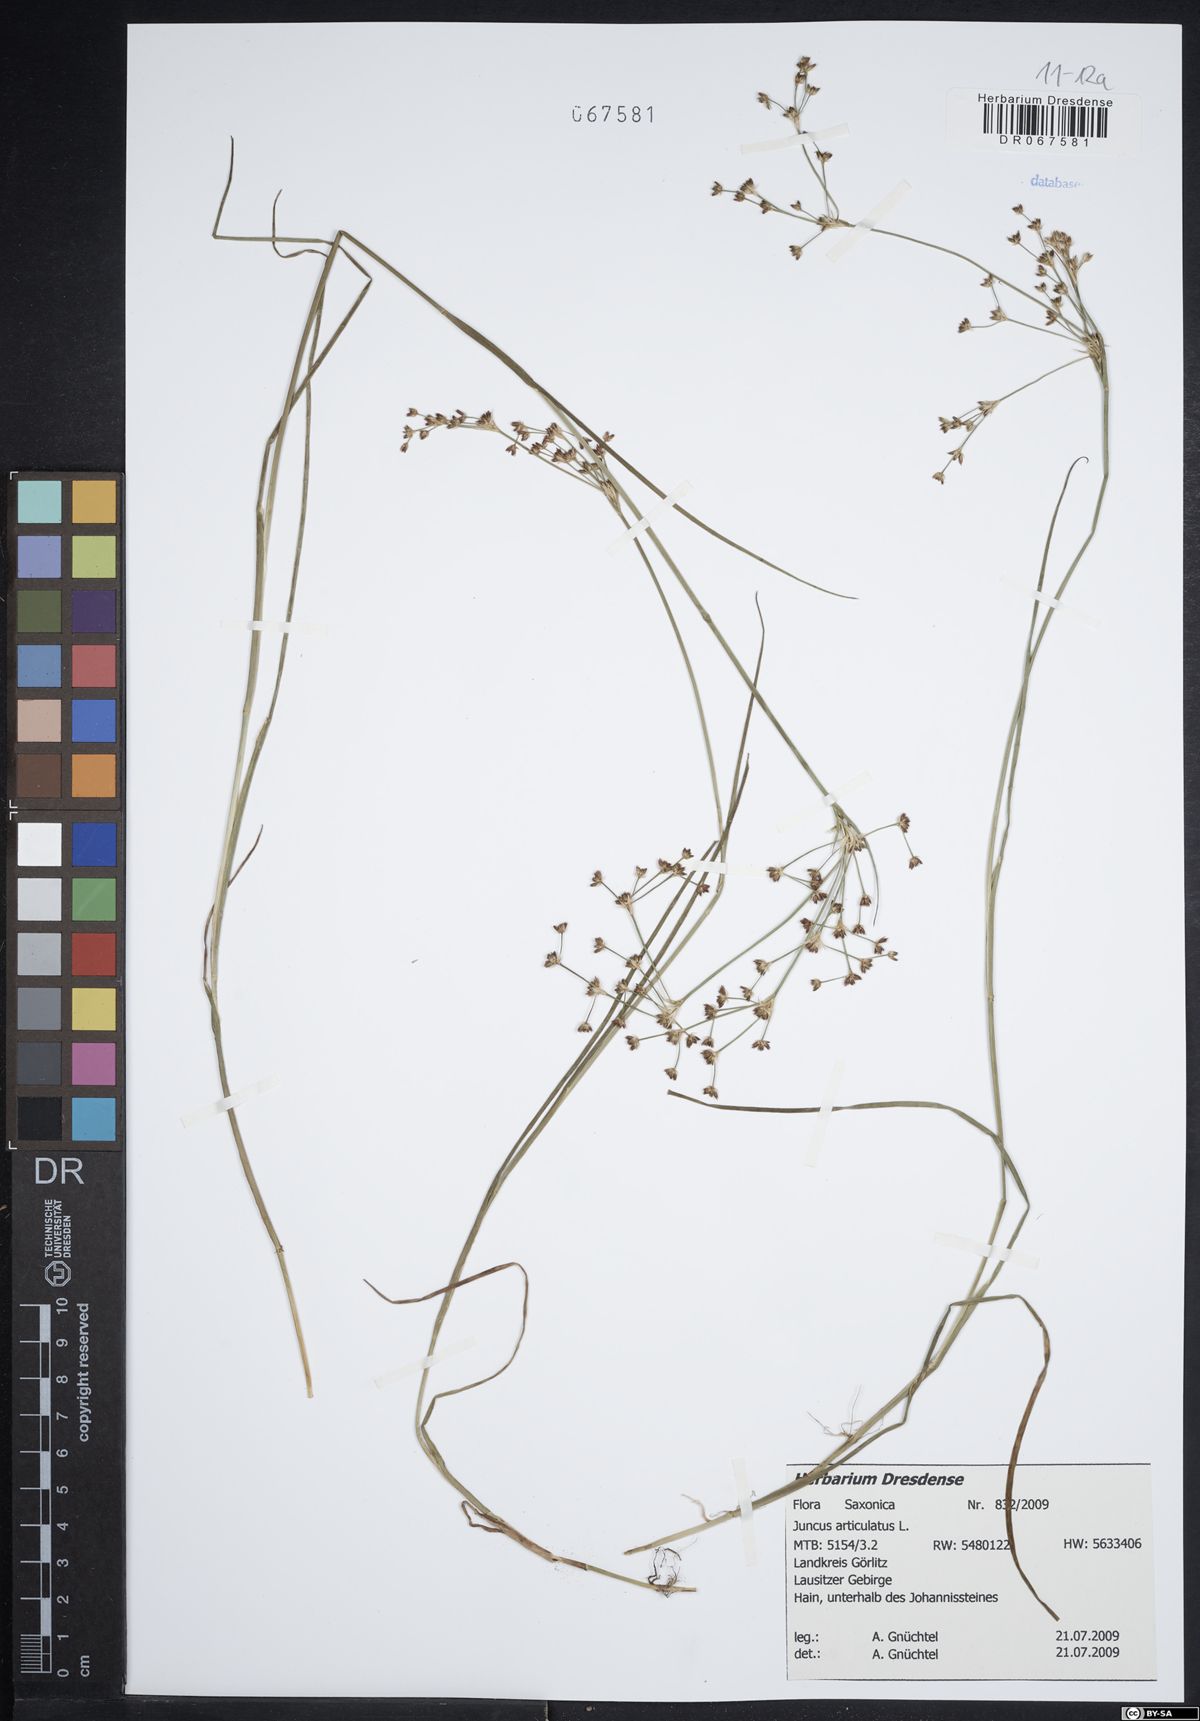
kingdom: Plantae
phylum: Tracheophyta
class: Liliopsida
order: Poales
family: Juncaceae
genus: Juncus
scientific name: Juncus articulatus
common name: Jointed rush
